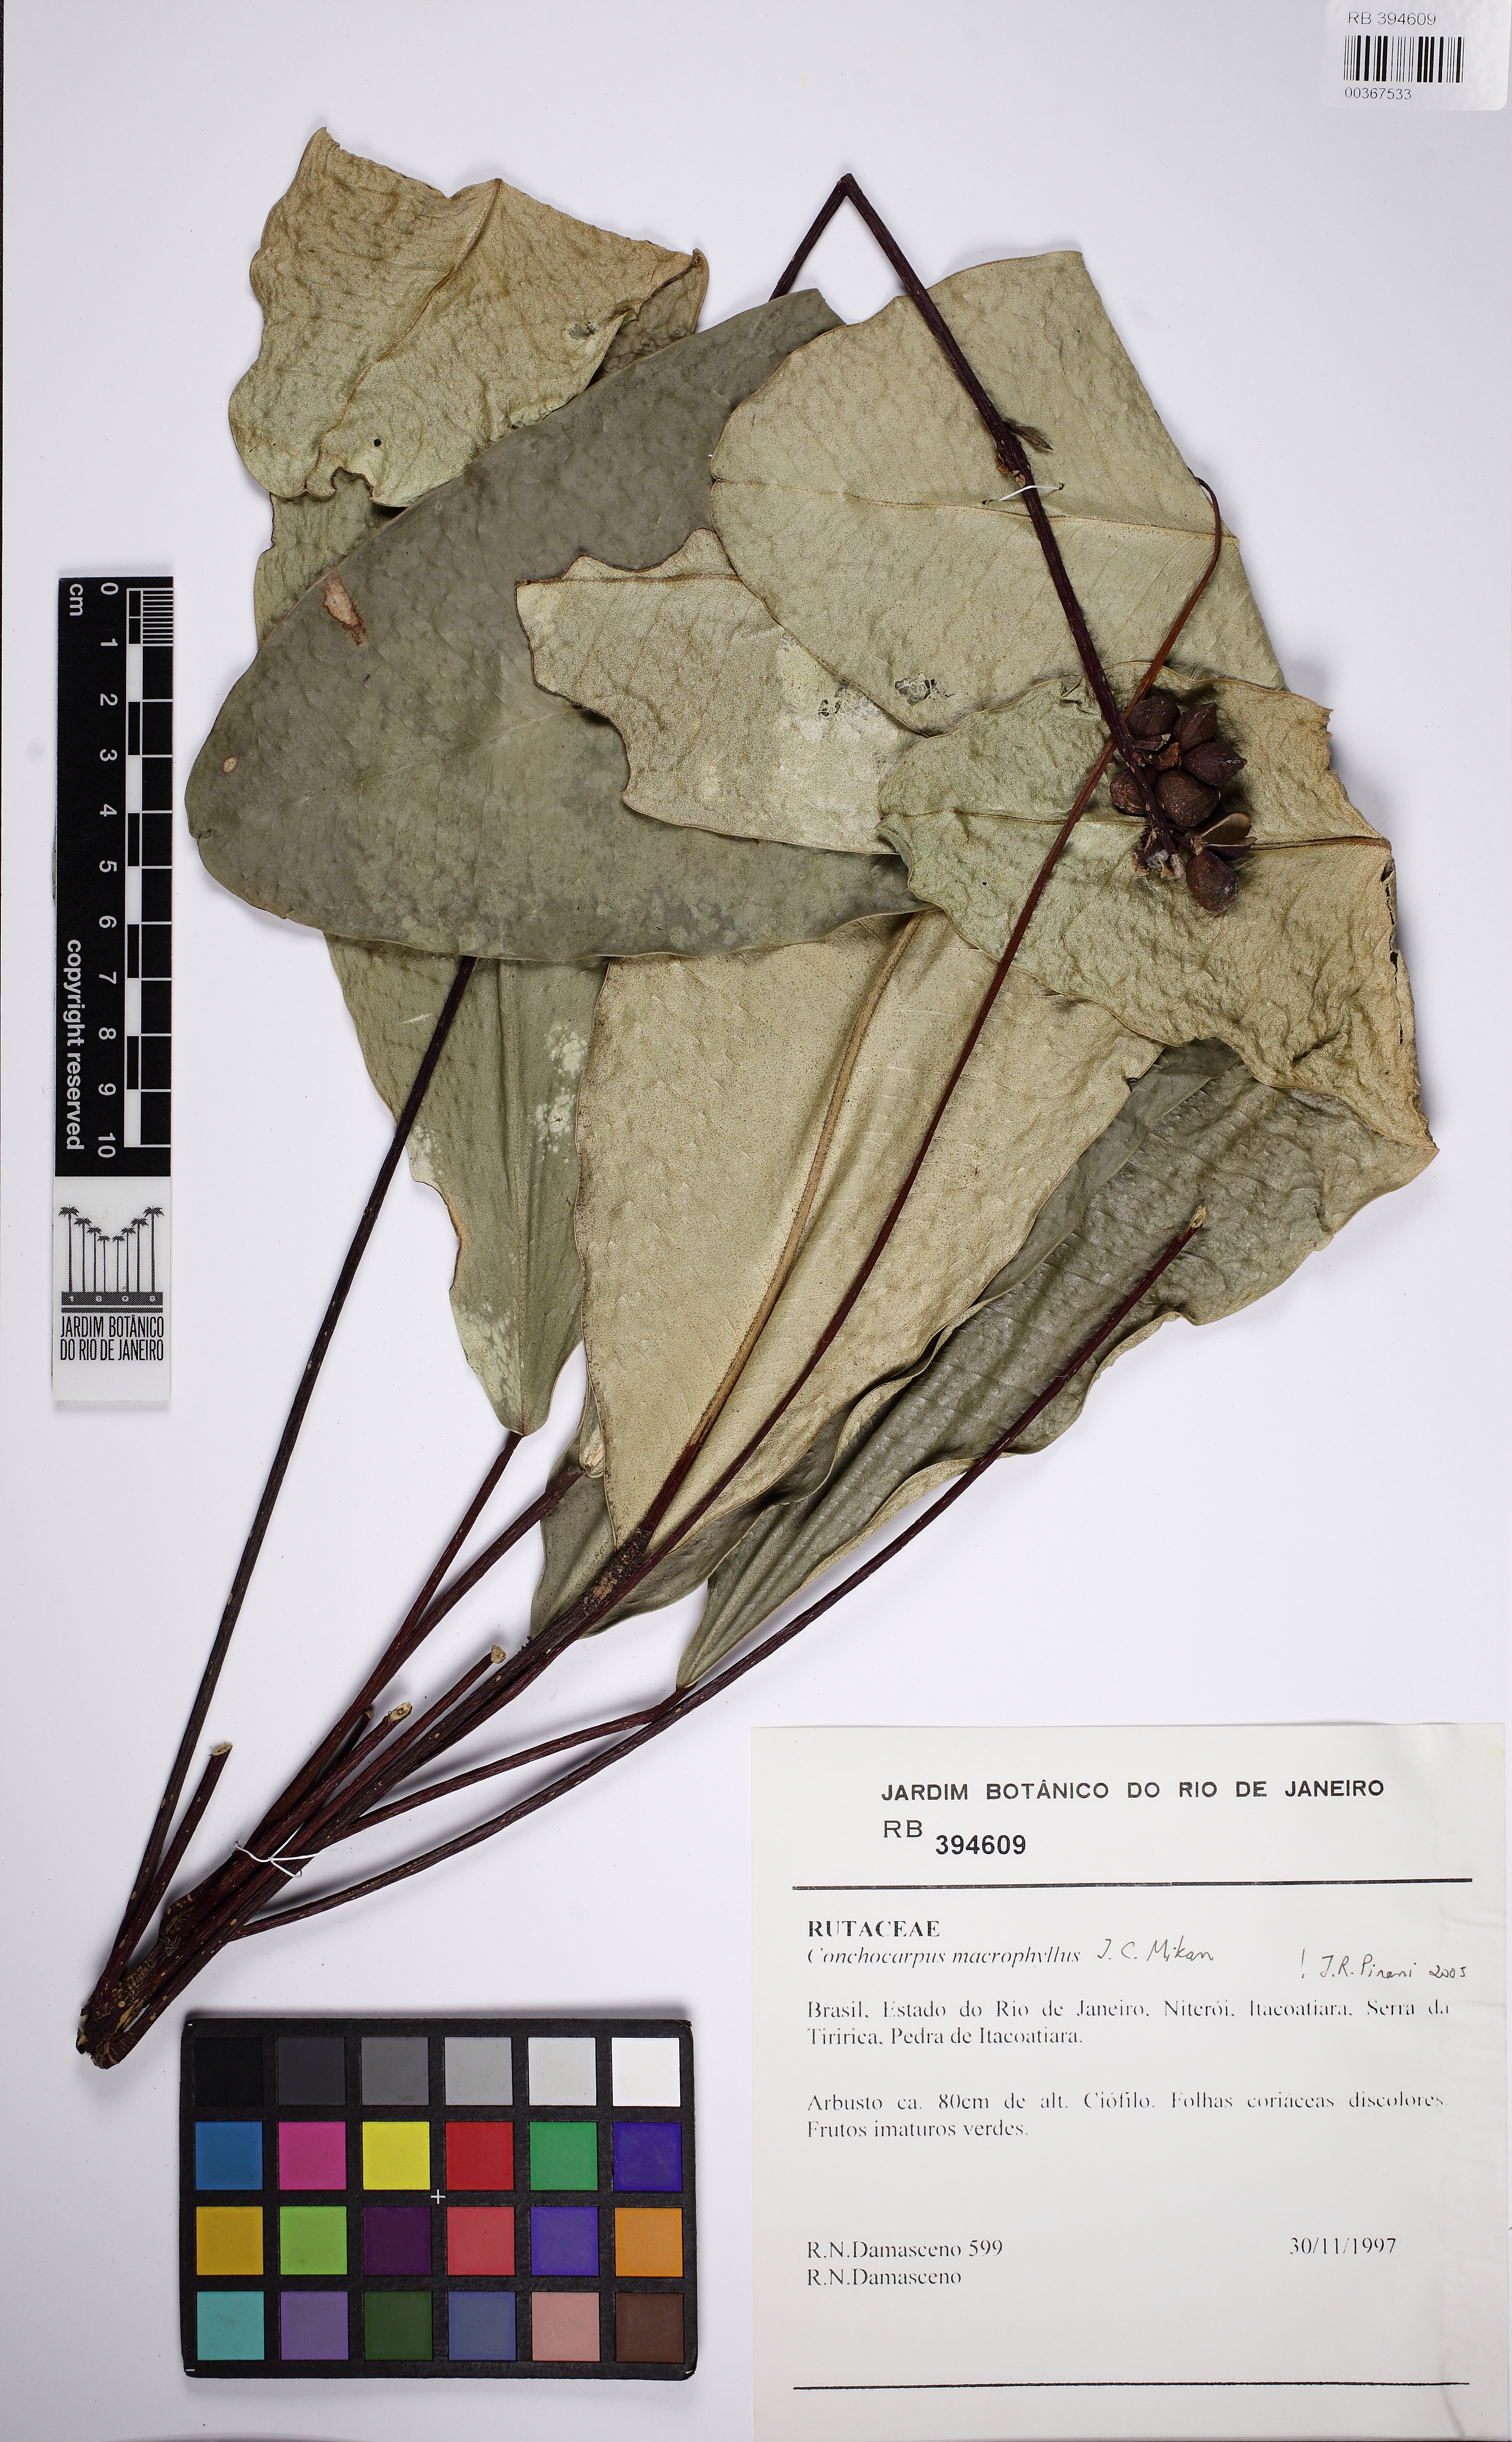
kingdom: Plantae
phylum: Tracheophyta
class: Magnoliopsida
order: Sapindales
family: Rutaceae
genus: Conchocarpus
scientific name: Conchocarpus macrophyllus
